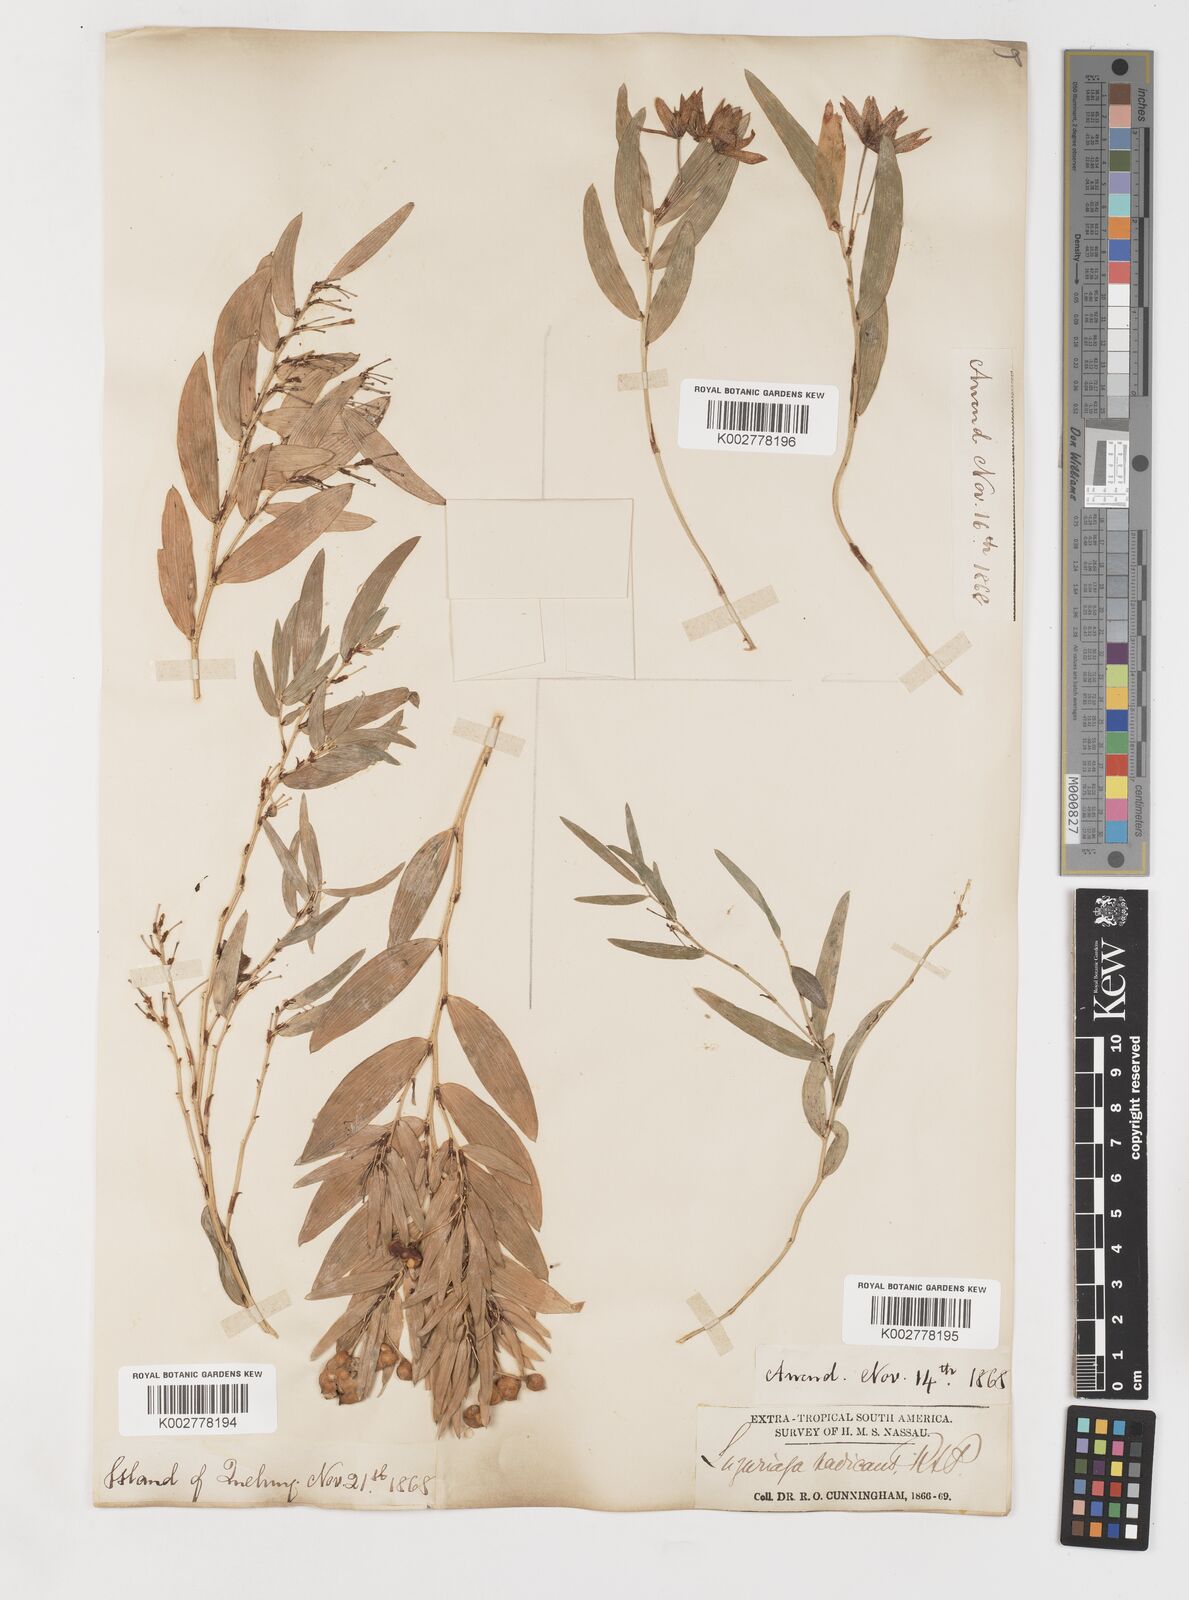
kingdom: Plantae
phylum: Tracheophyta
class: Liliopsida
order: Liliales
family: Alstroemeriaceae
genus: Luzuriaga
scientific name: Luzuriaga radicans
